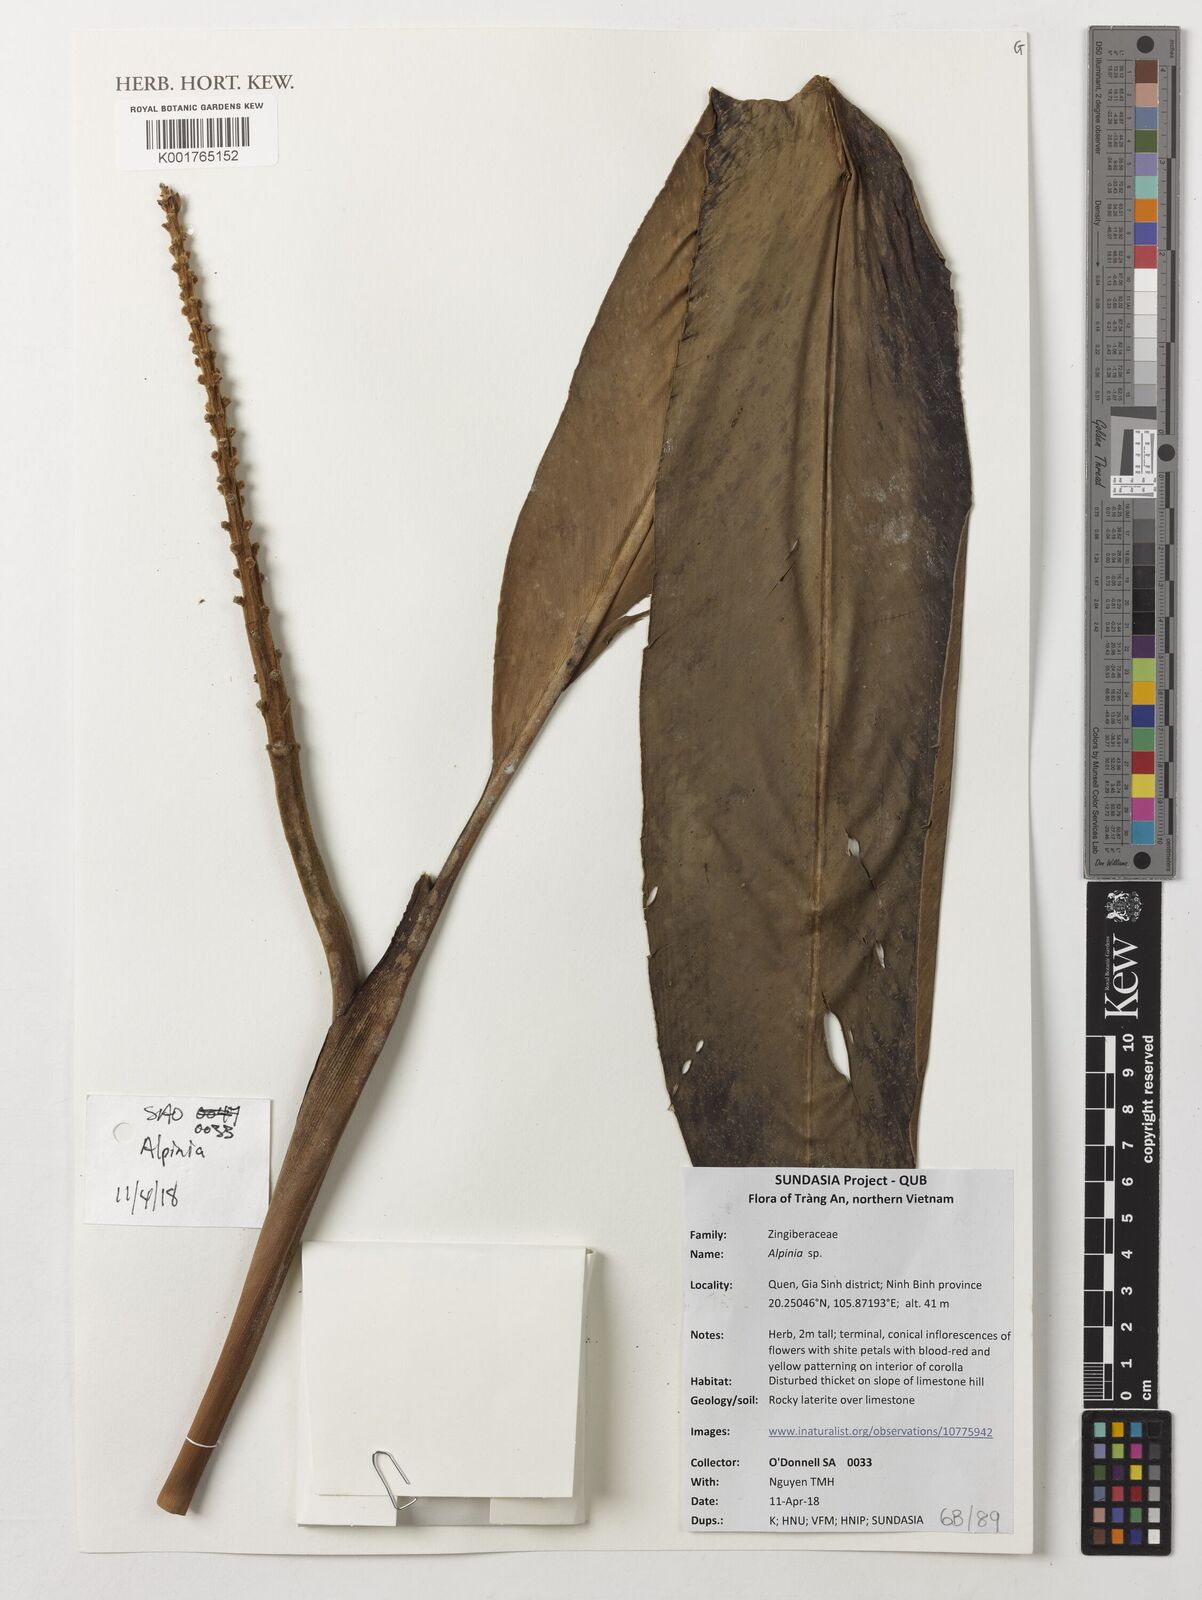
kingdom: Plantae
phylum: Tracheophyta
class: Liliopsida
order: Zingiberales
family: Zingiberaceae
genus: Alpinia
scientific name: Alpinia
